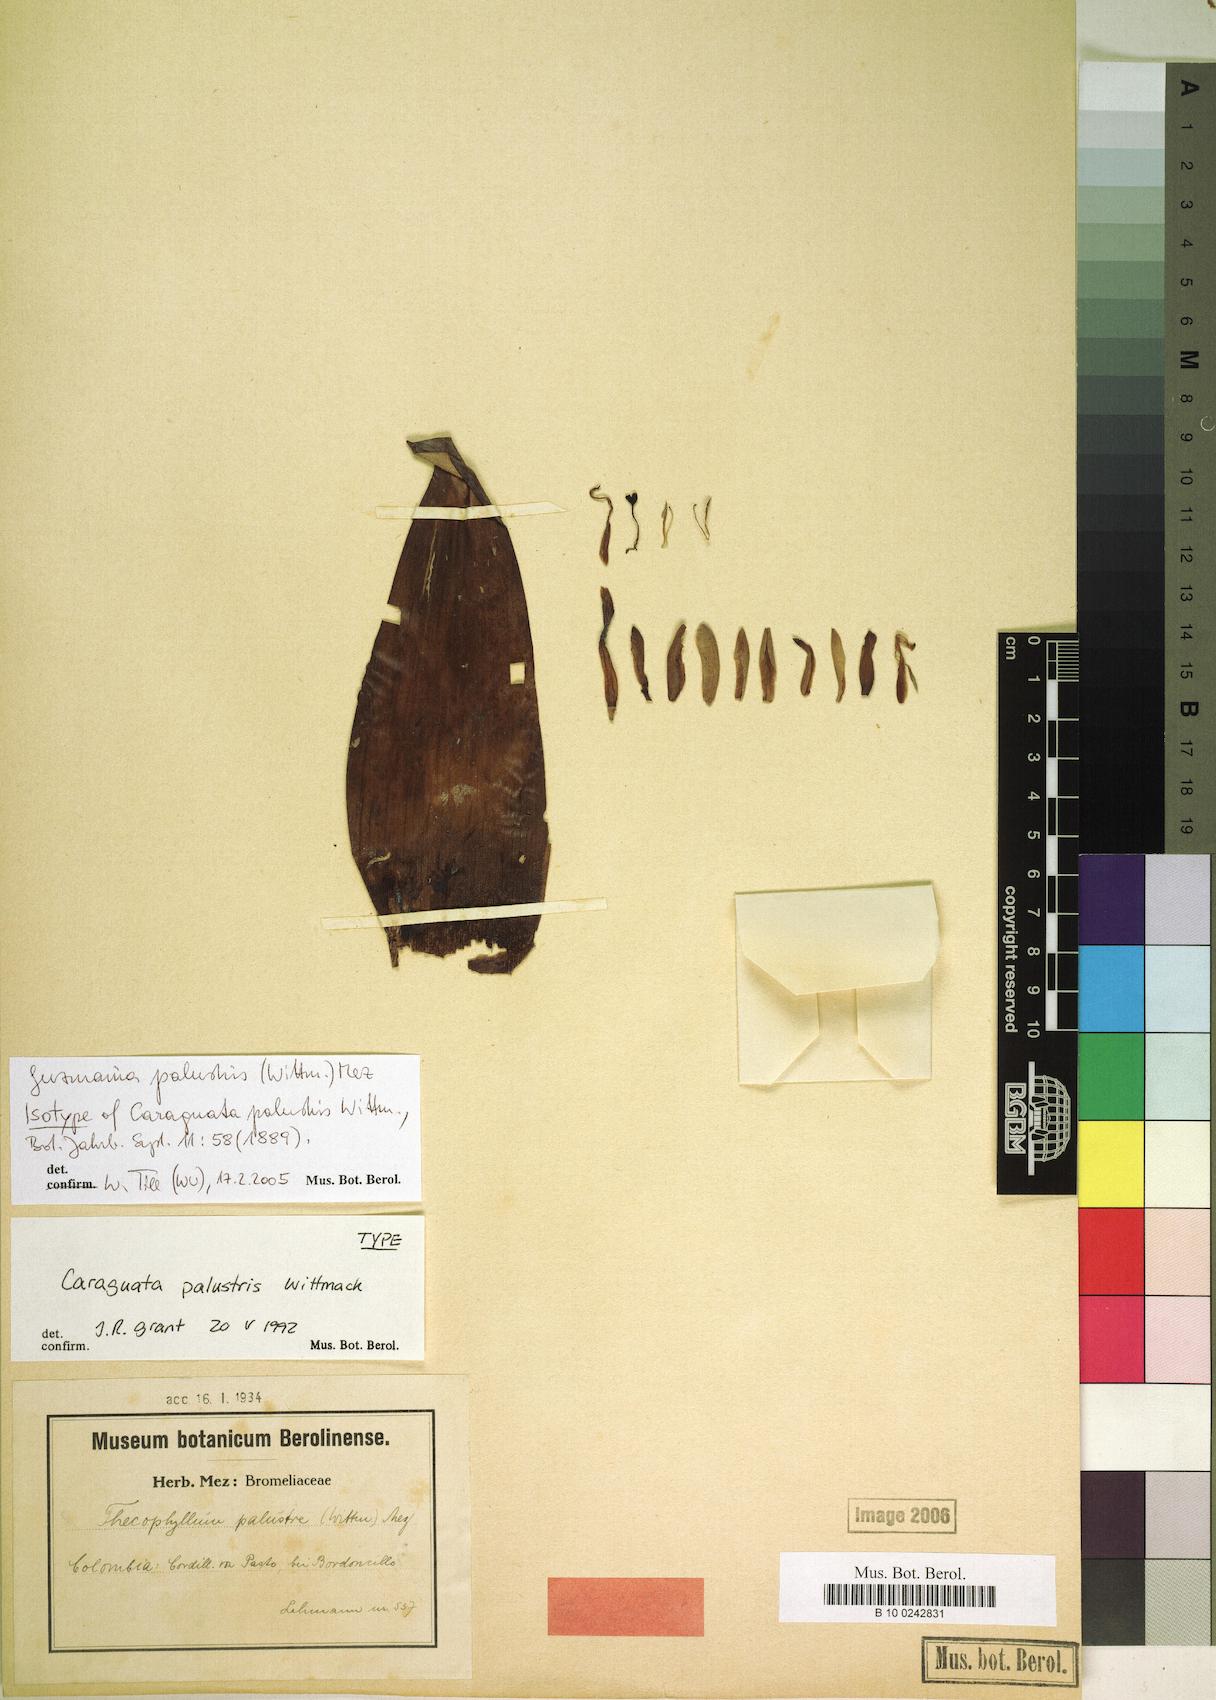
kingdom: Plantae
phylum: Tracheophyta
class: Liliopsida
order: Poales
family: Bromeliaceae
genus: Guzmania
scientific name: Guzmania palustris
